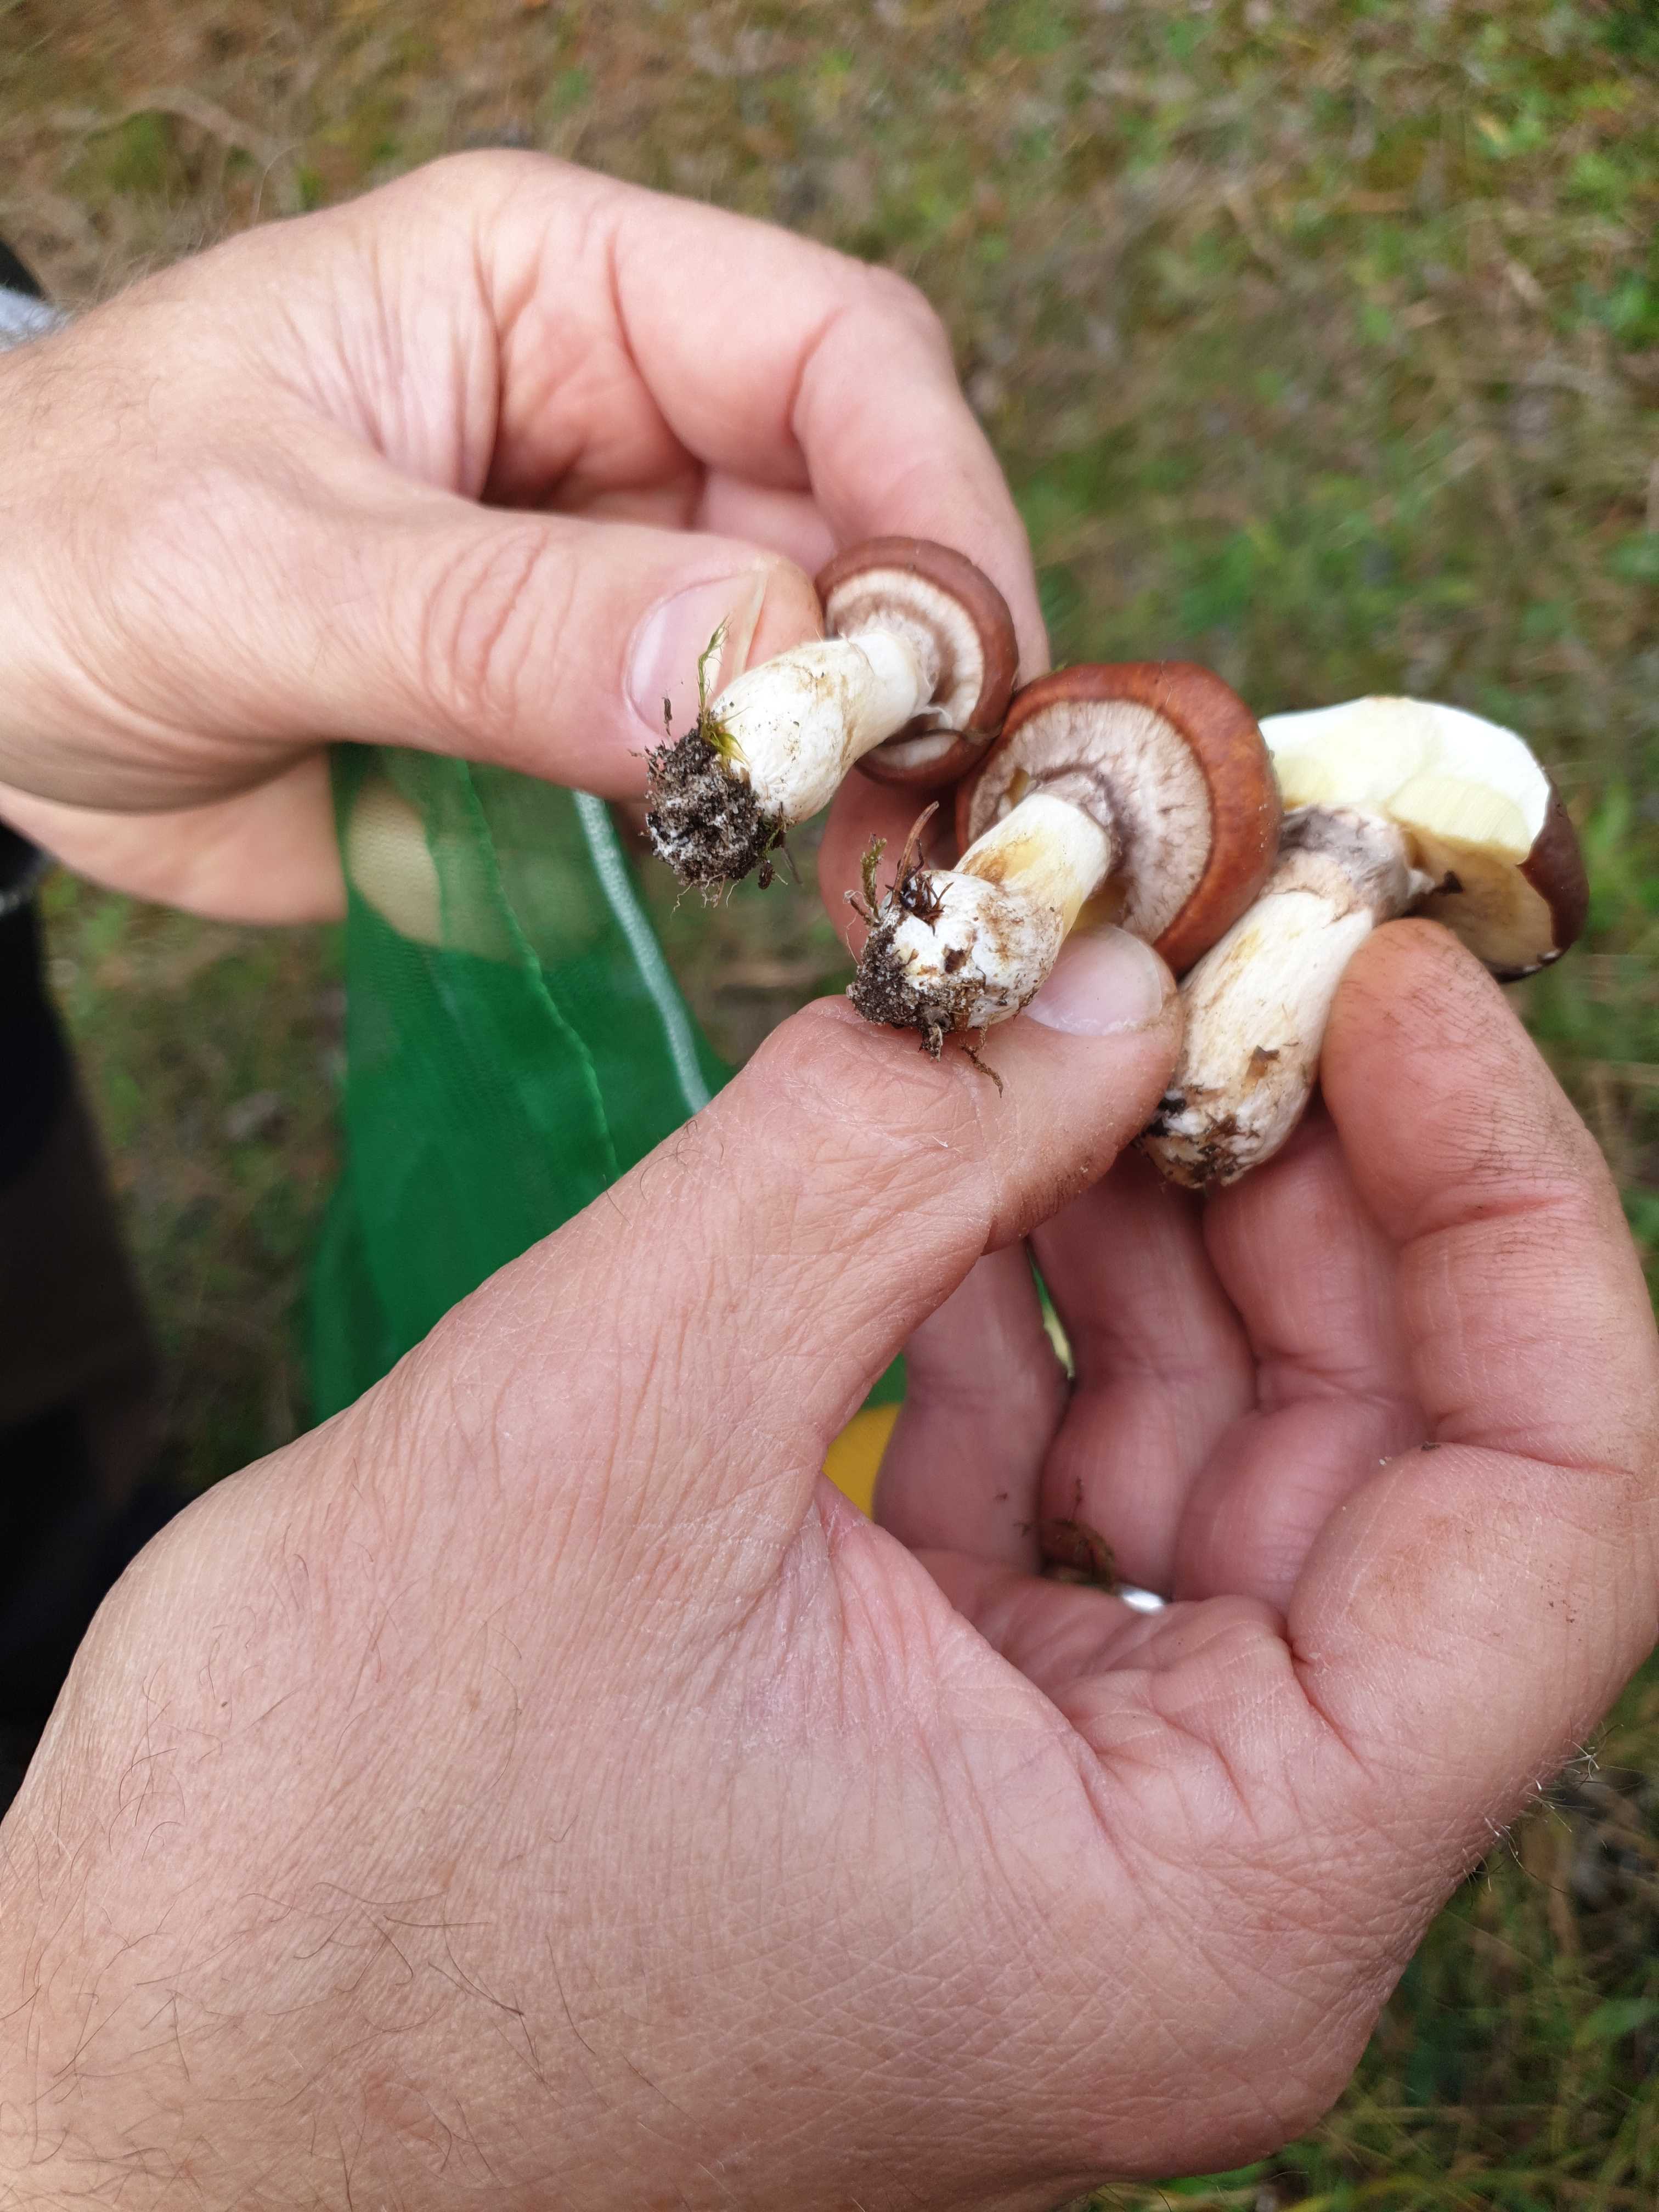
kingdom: Fungi
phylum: Basidiomycota
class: Agaricomycetes
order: Boletales
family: Suillaceae
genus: Suillus
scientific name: Suillus luteus
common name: brungul slimrørhat
